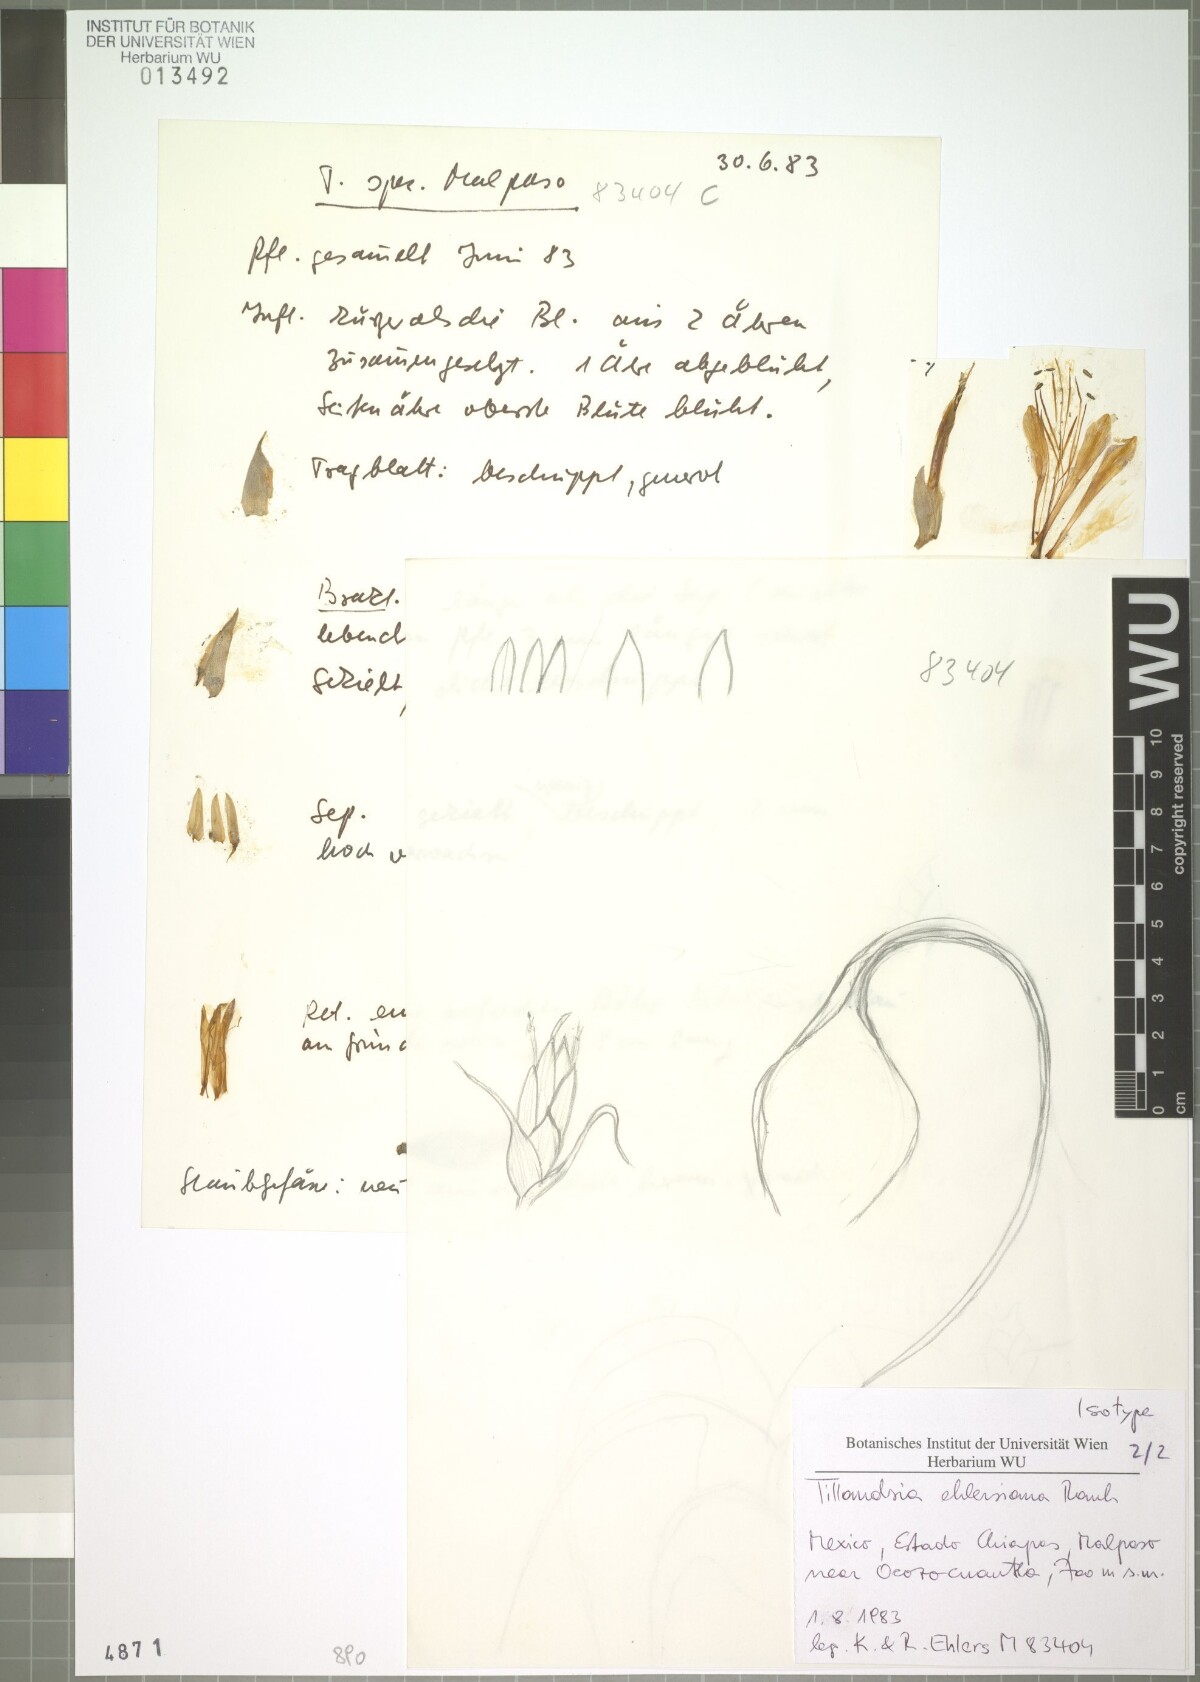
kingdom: Plantae
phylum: Tracheophyta
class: Liliopsida
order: Poales
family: Bromeliaceae
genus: Tillandsia
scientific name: Tillandsia seleriana
